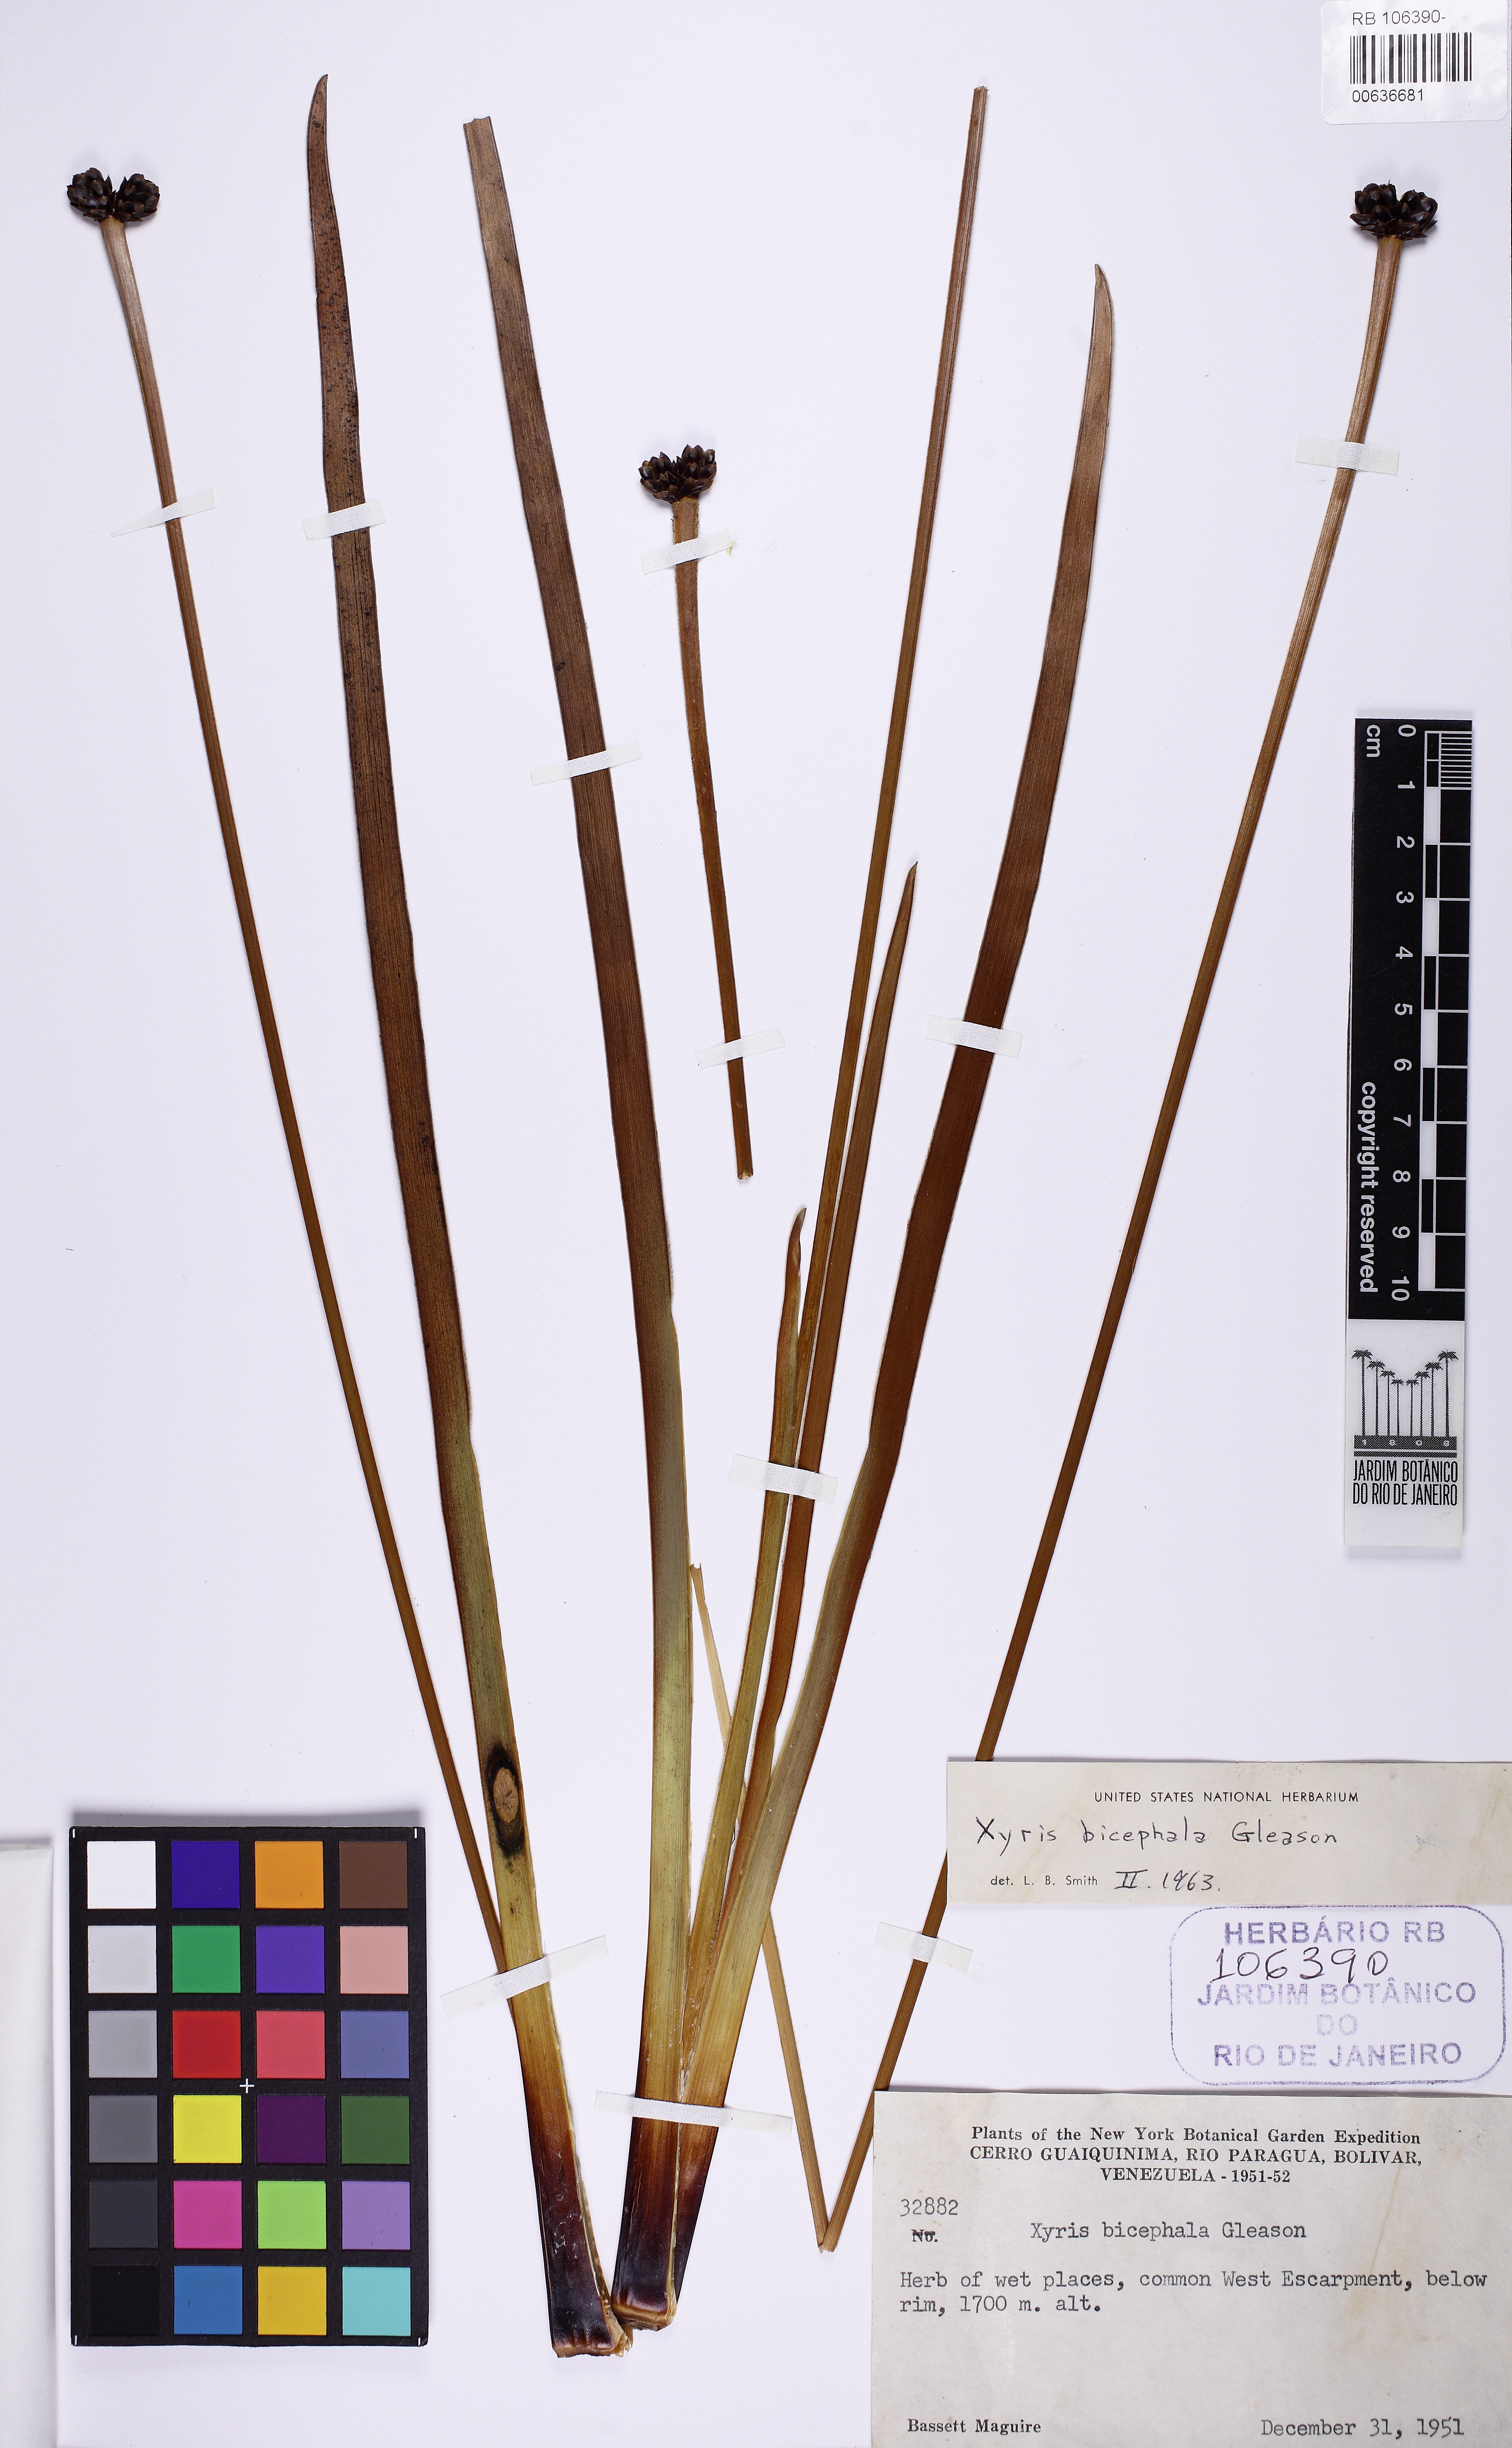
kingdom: Plantae
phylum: Tracheophyta
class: Liliopsida
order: Poales
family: Xyridaceae
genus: Xyris
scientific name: Xyris bicephala
